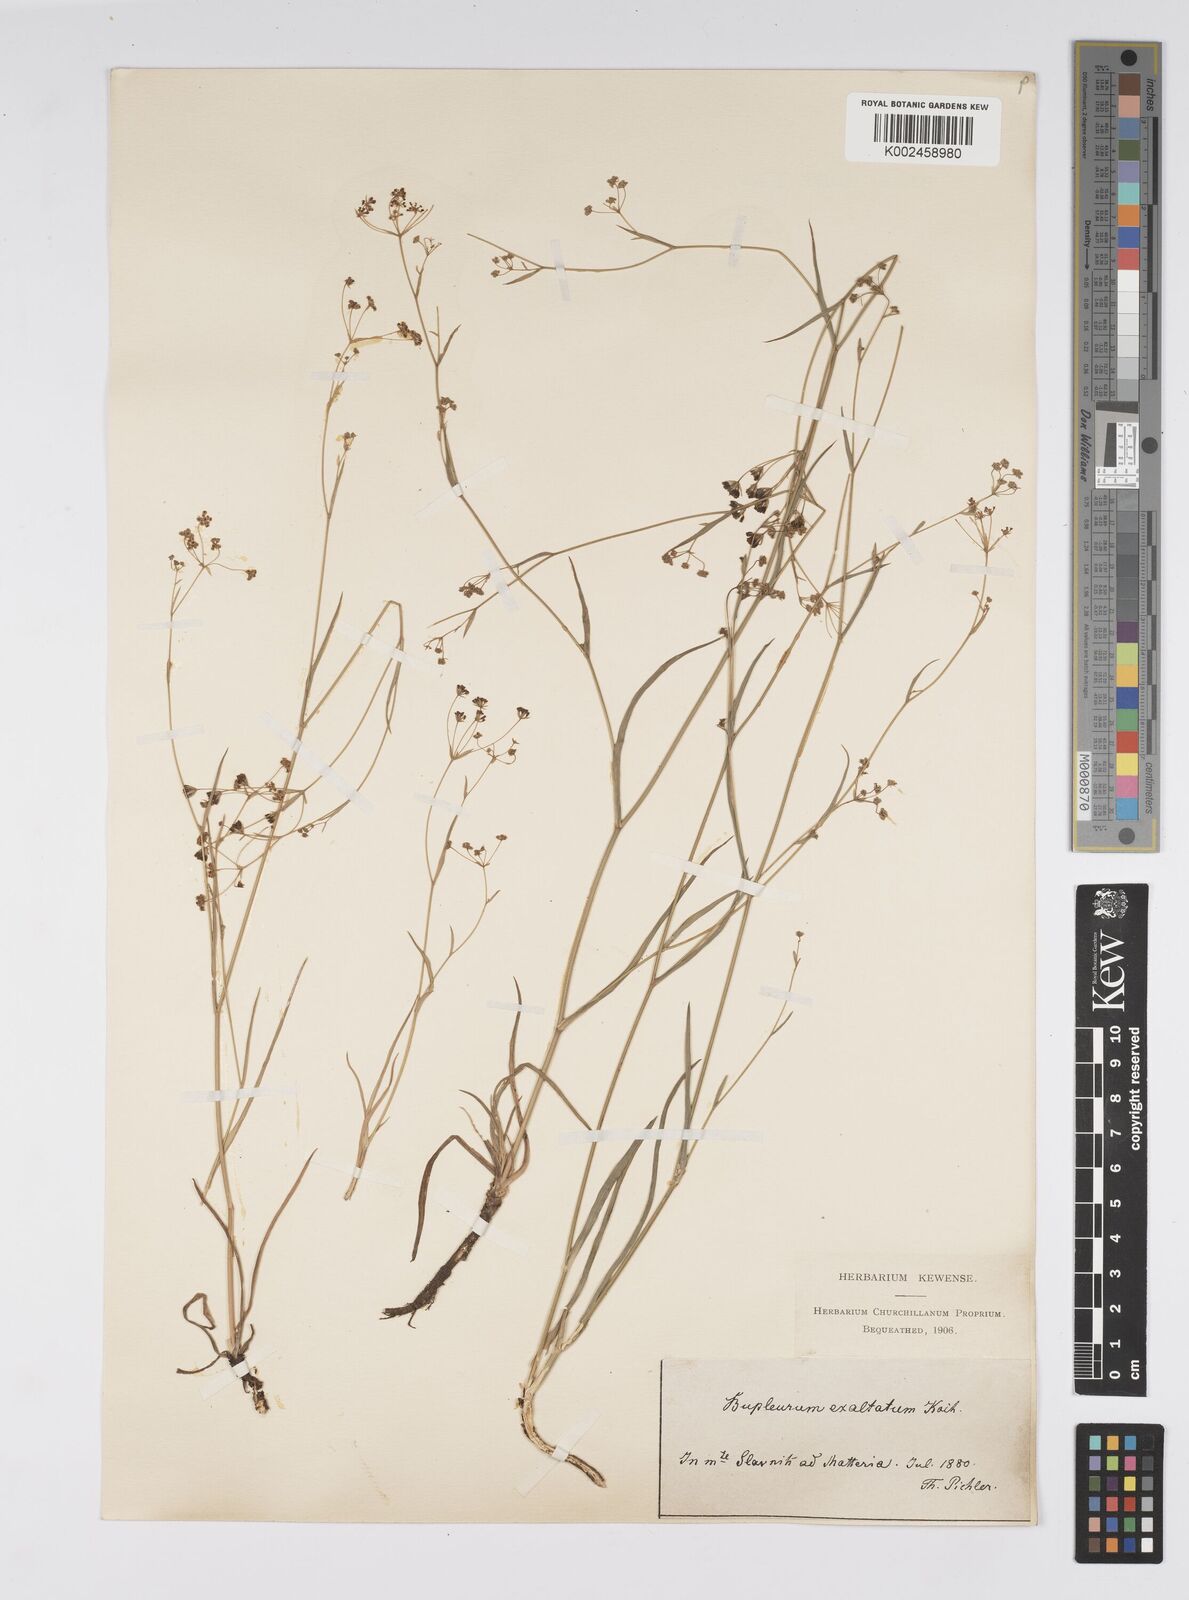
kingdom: Plantae
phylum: Tracheophyta
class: Magnoliopsida
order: Apiales
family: Apiaceae
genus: Bupleurum
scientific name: Bupleurum falcatum
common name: Sickle-leaved hare's-ear
